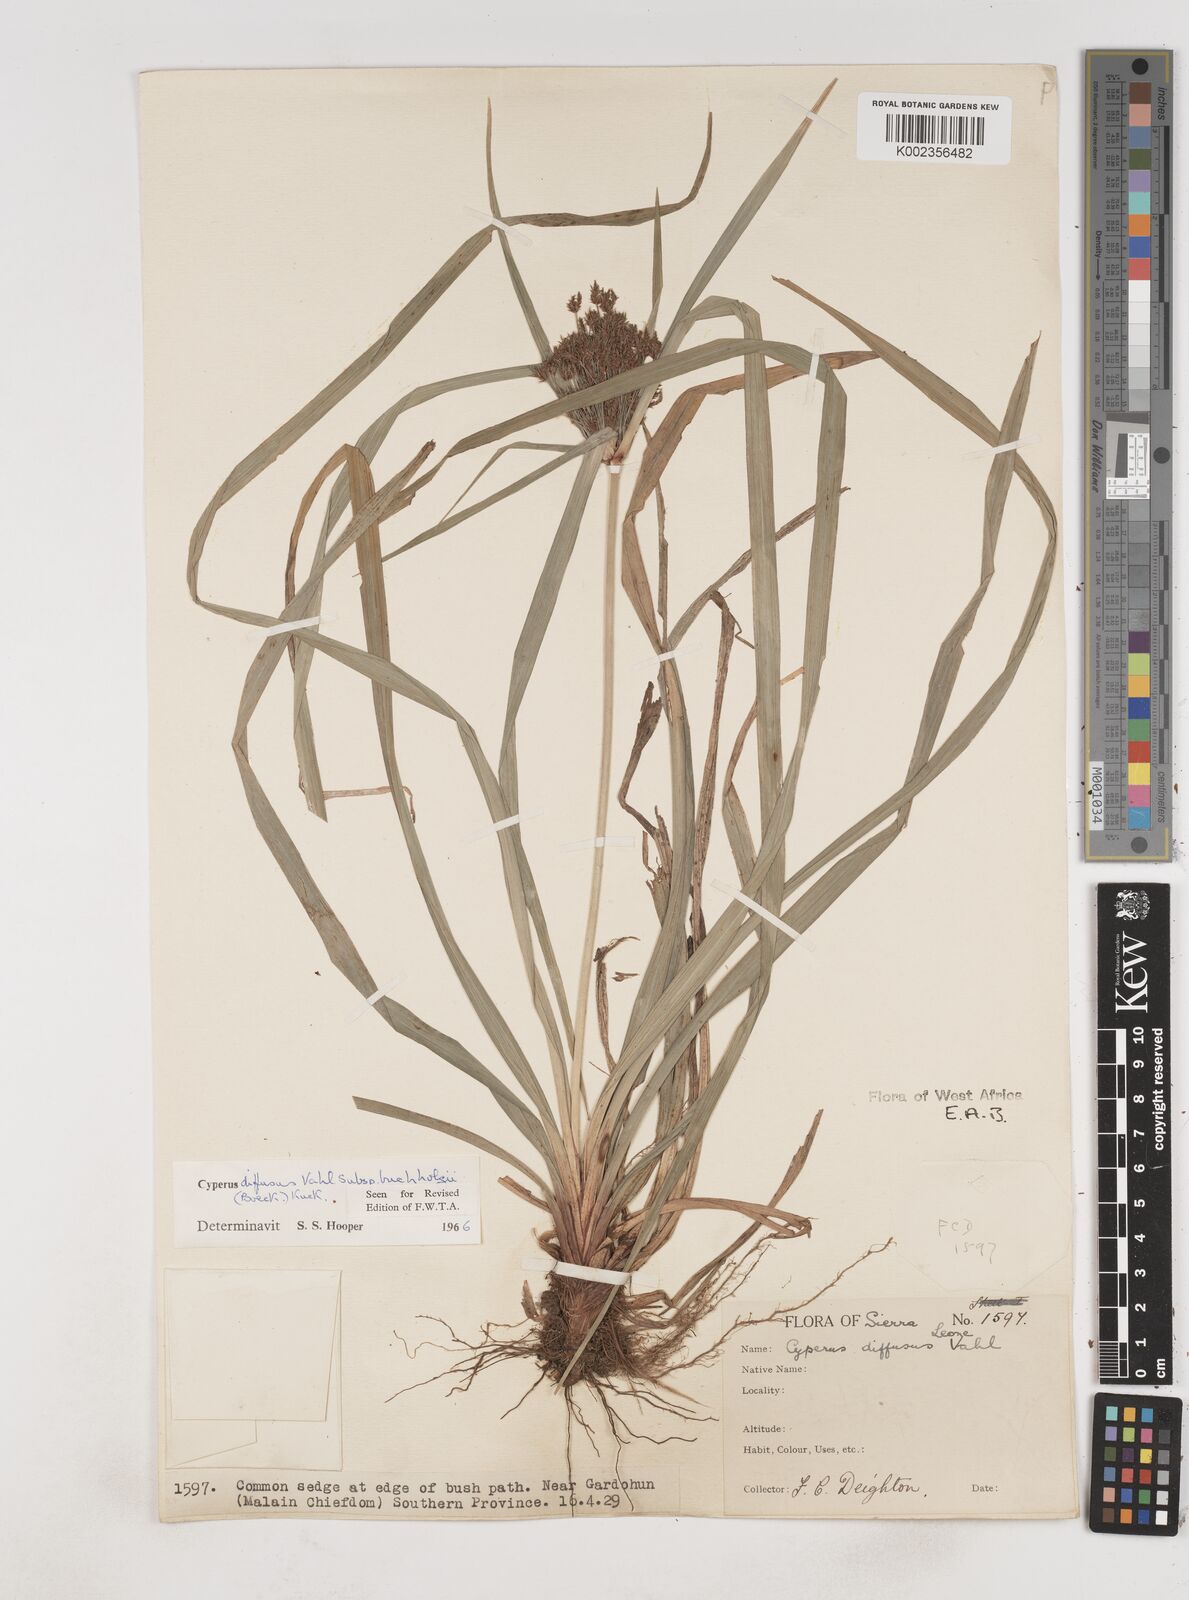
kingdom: Plantae
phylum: Tracheophyta
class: Liliopsida
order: Poales
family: Cyperaceae
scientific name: Cyperaceae
